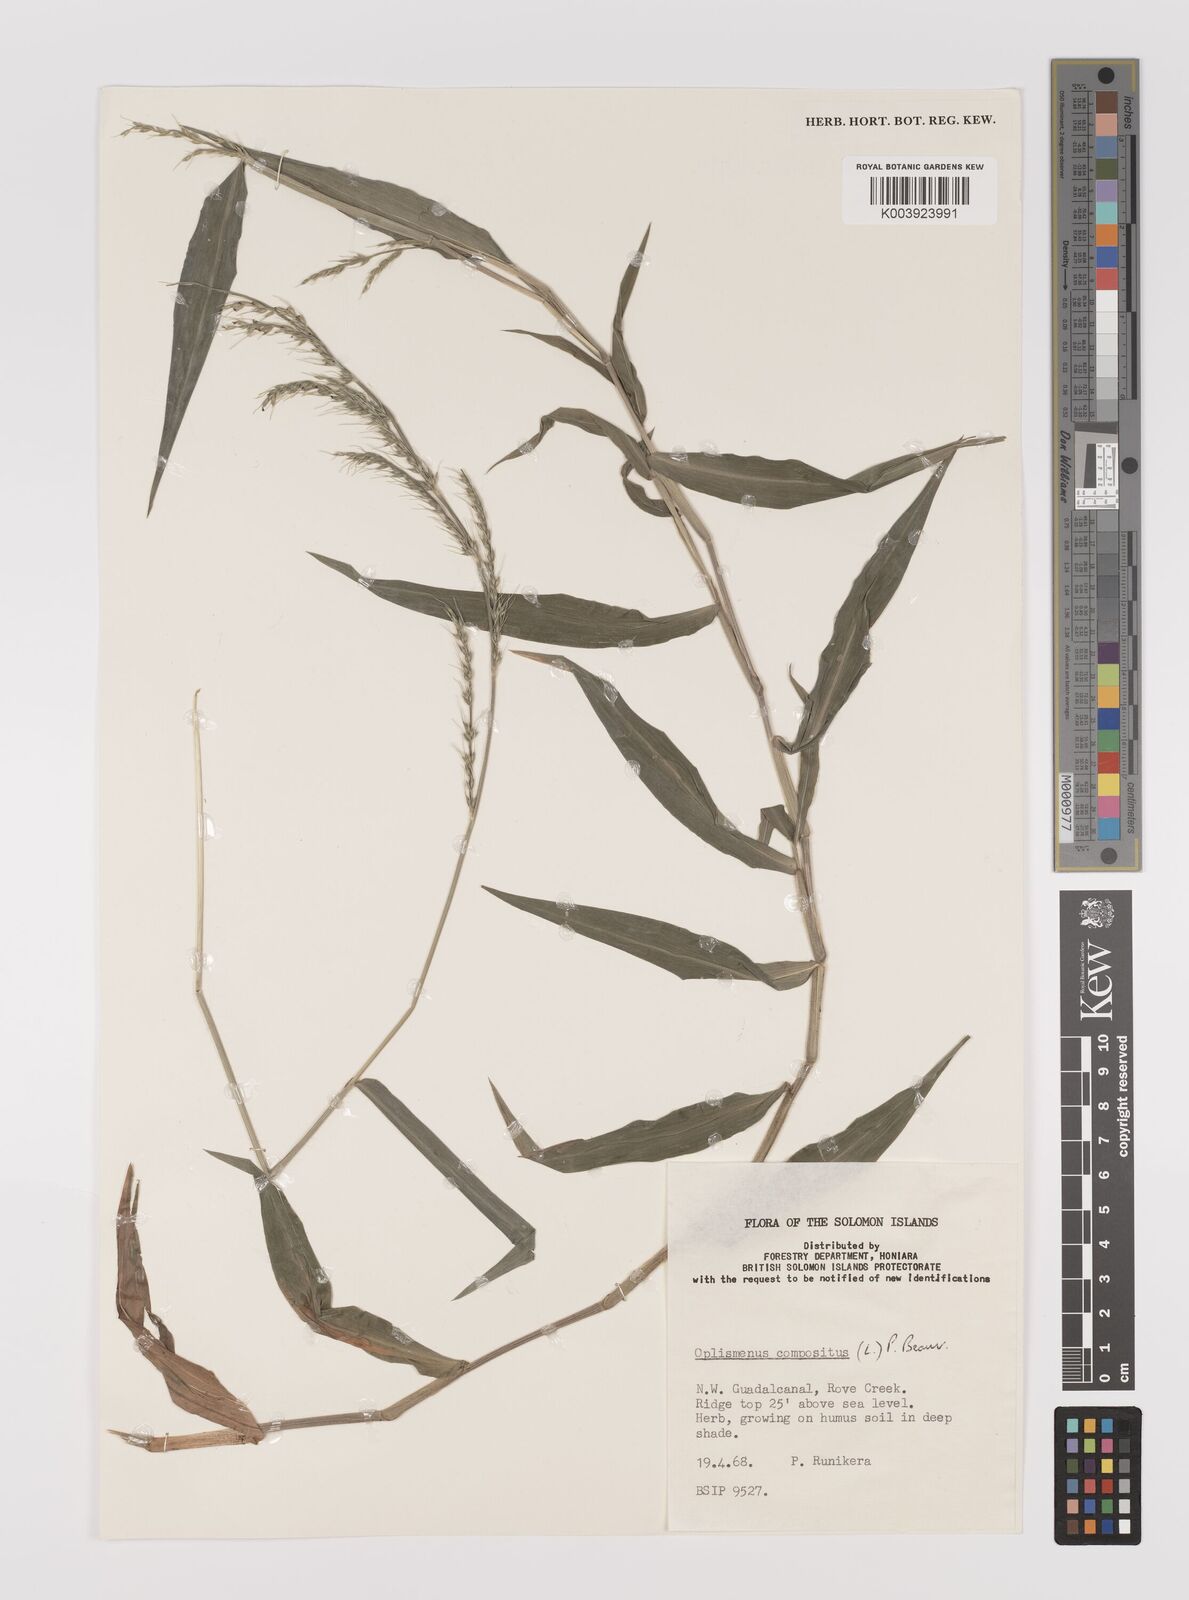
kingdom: Plantae
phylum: Tracheophyta
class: Liliopsida
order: Poales
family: Poaceae
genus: Oplismenus
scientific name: Oplismenus compositus
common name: Running mountain grass
